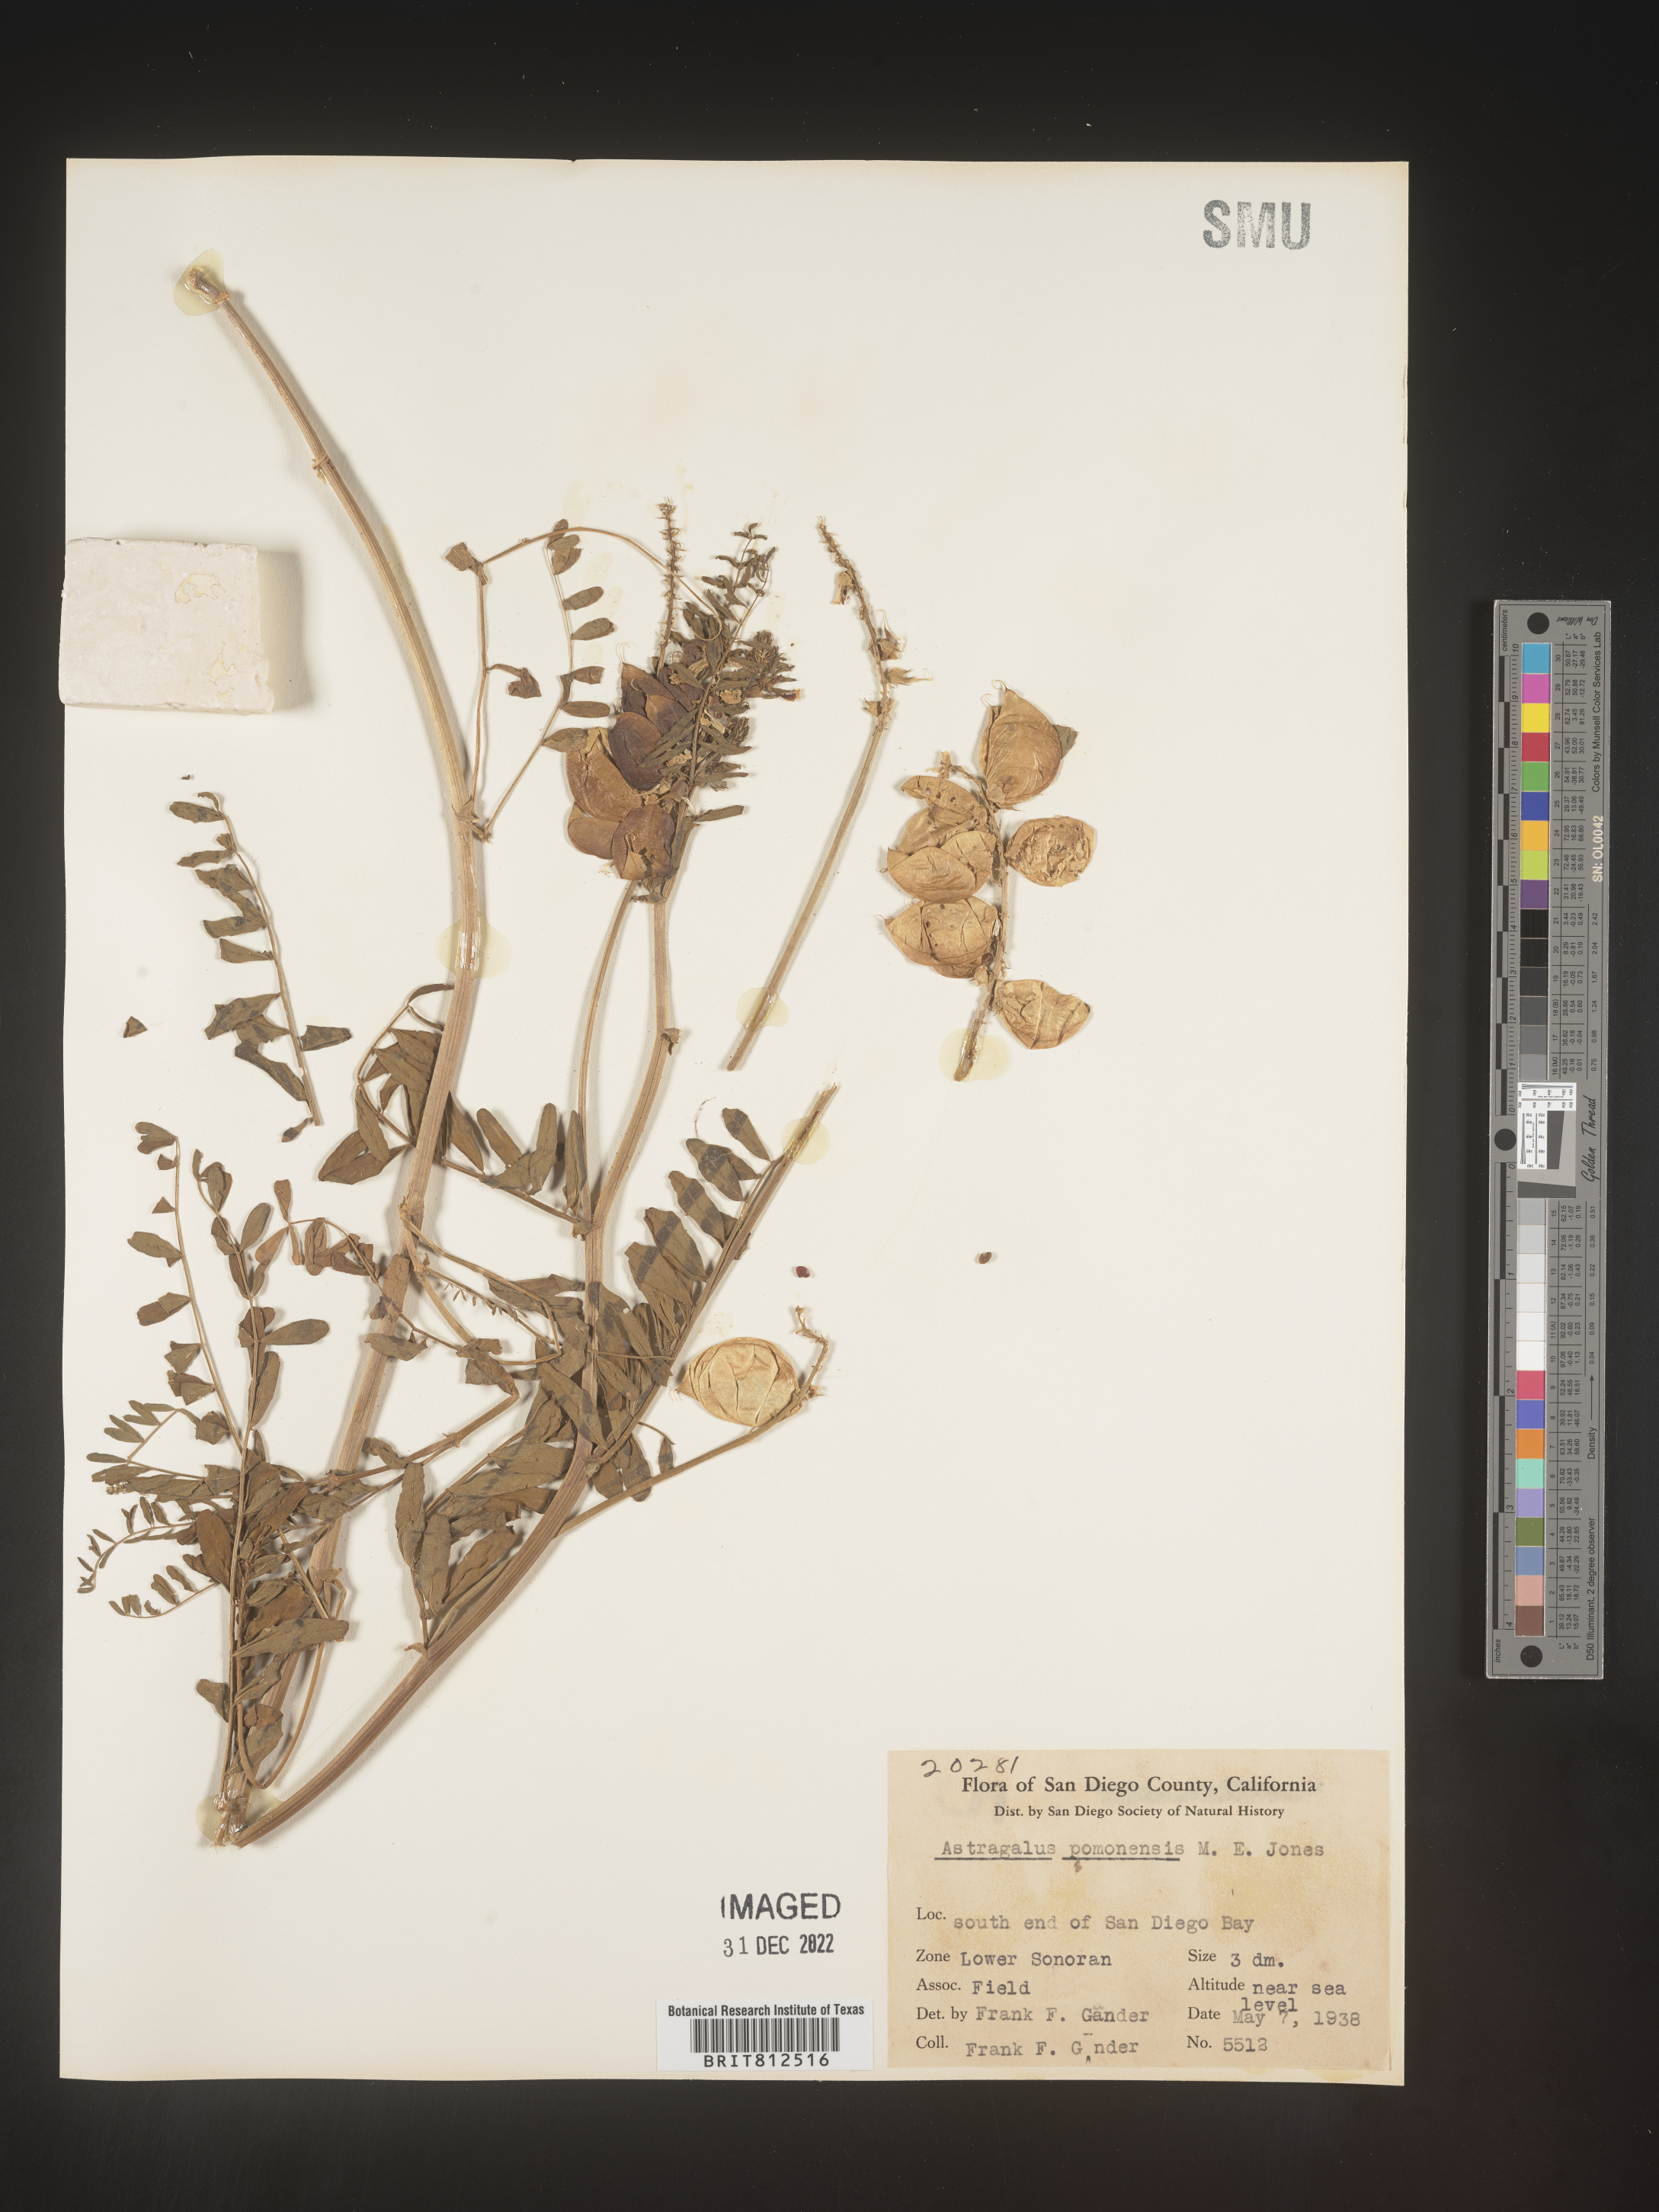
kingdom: Plantae
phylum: Tracheophyta
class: Magnoliopsida
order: Fabales
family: Fabaceae
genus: Astragalus
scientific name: Astragalus
